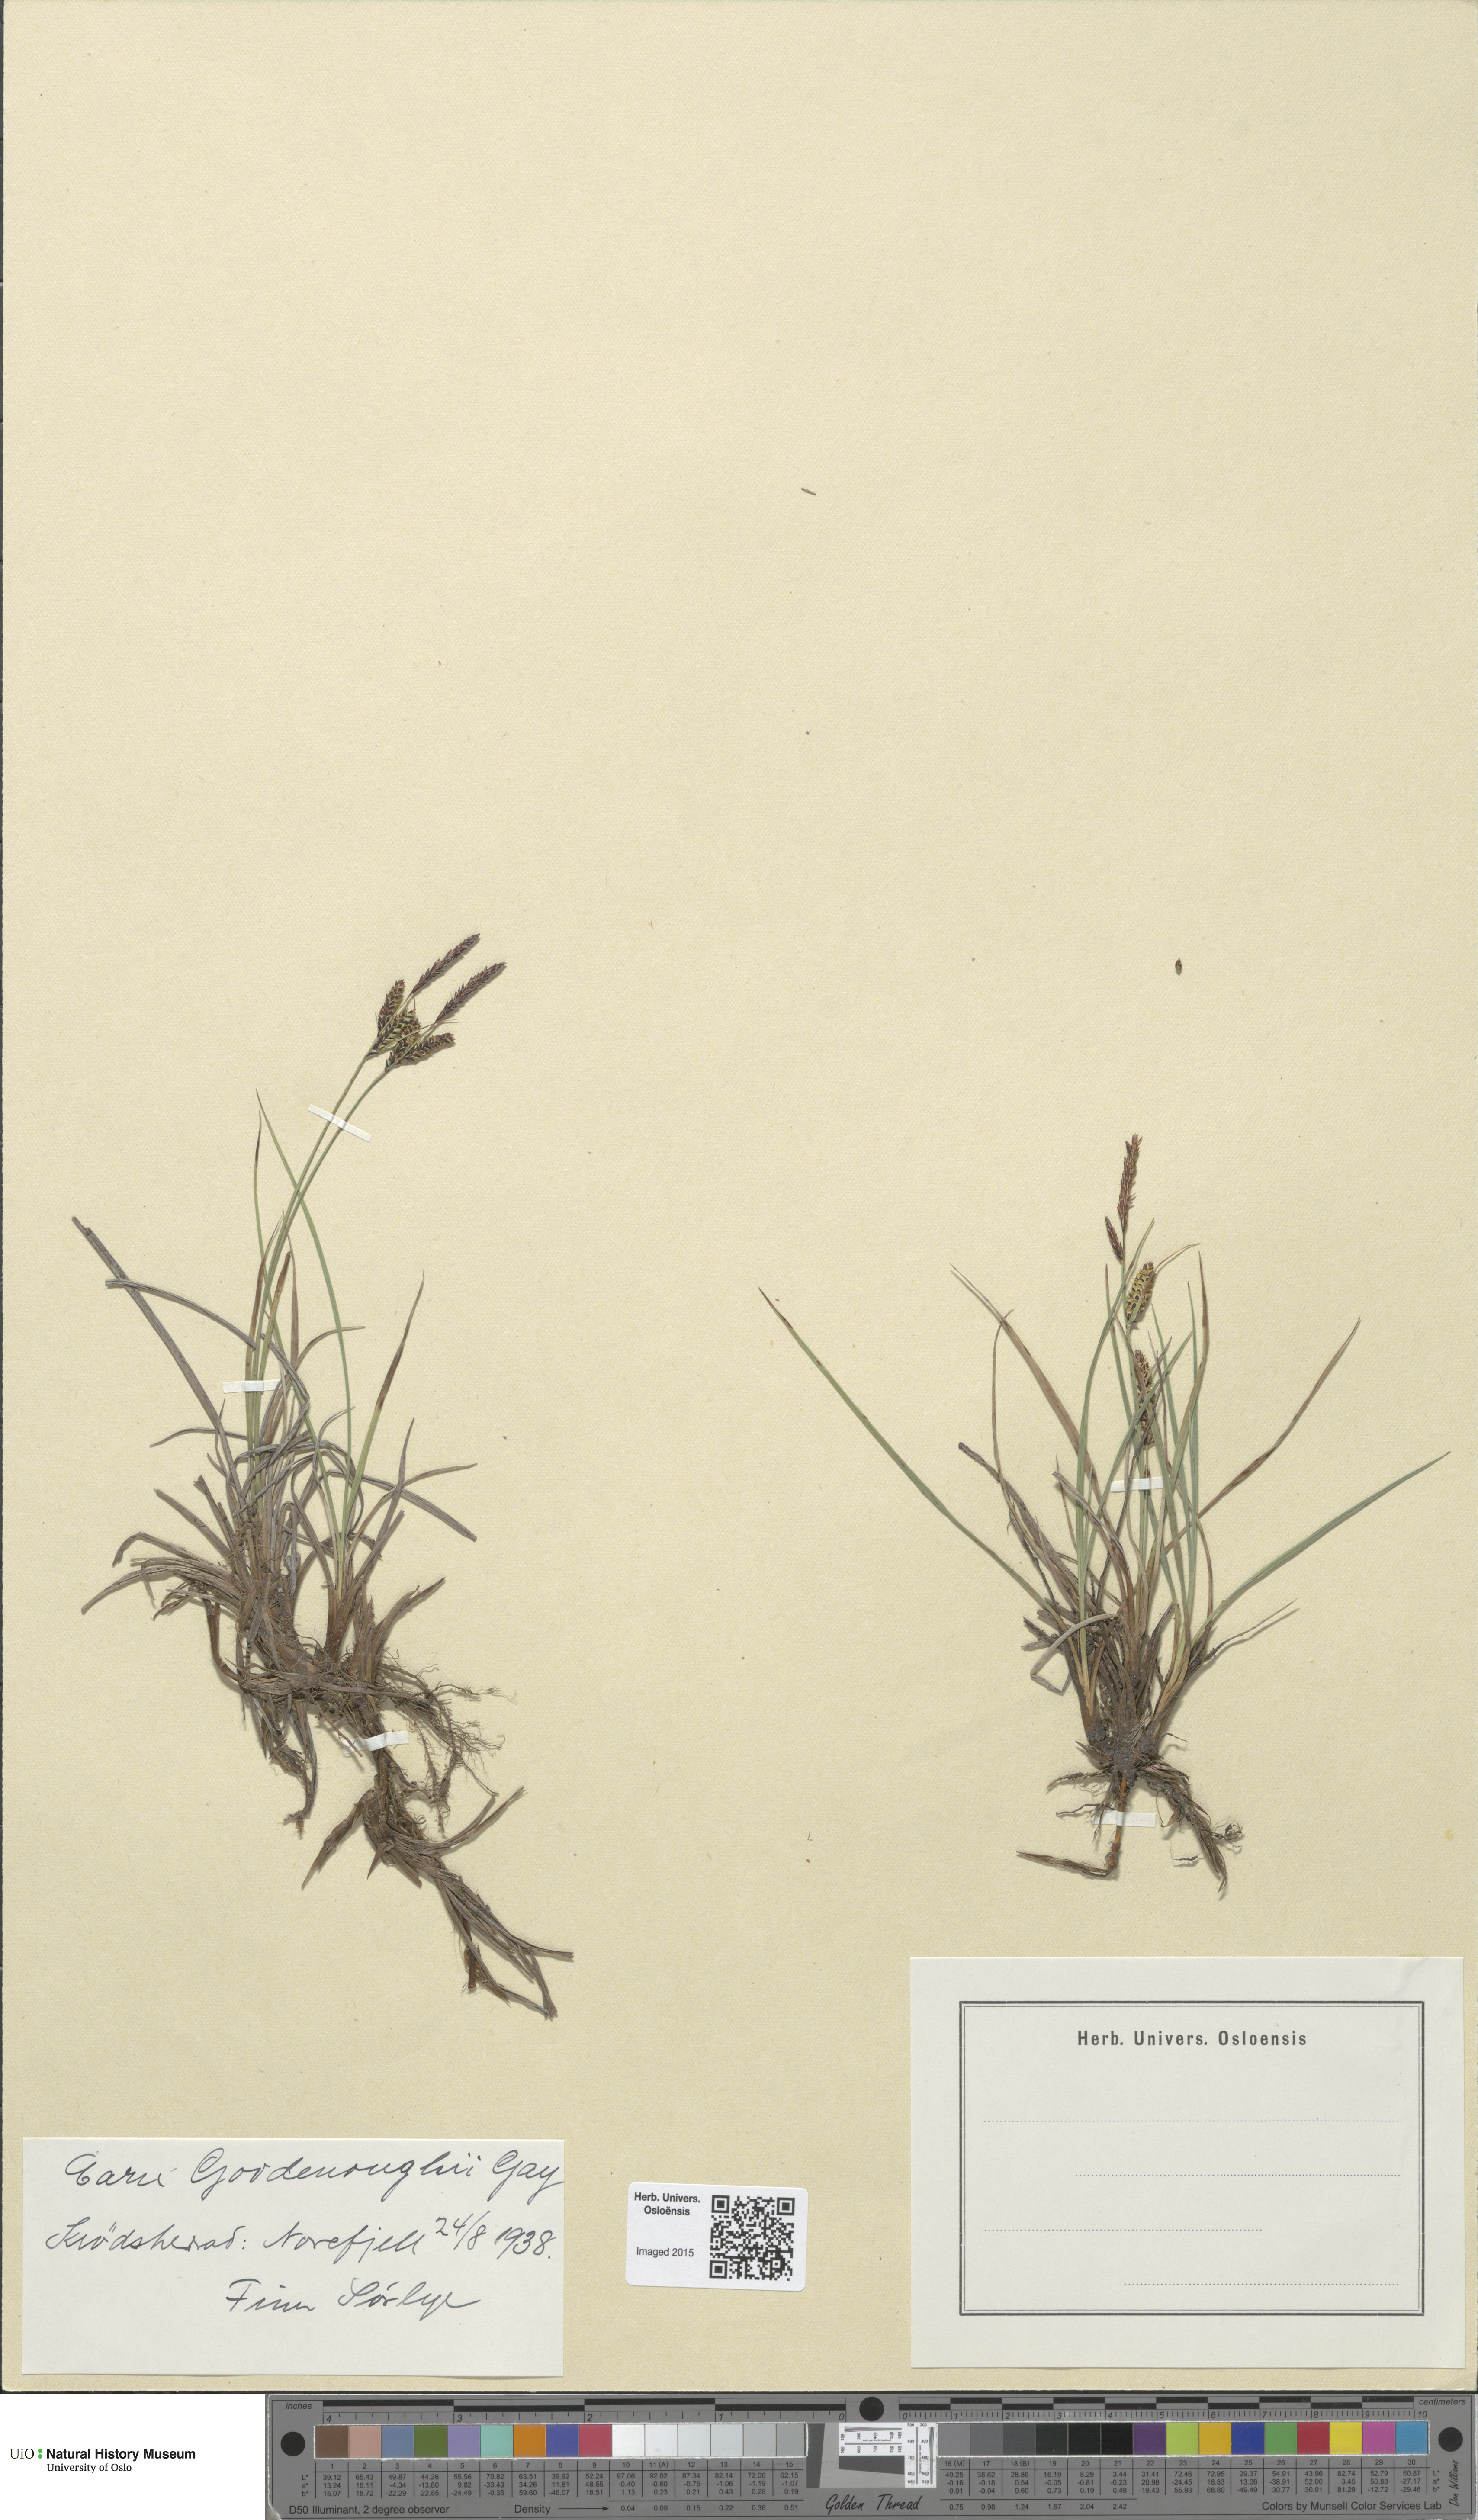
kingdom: Plantae
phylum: Tracheophyta
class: Liliopsida
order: Poales
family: Cyperaceae
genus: Carex
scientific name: Carex nigra
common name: Common sedge
